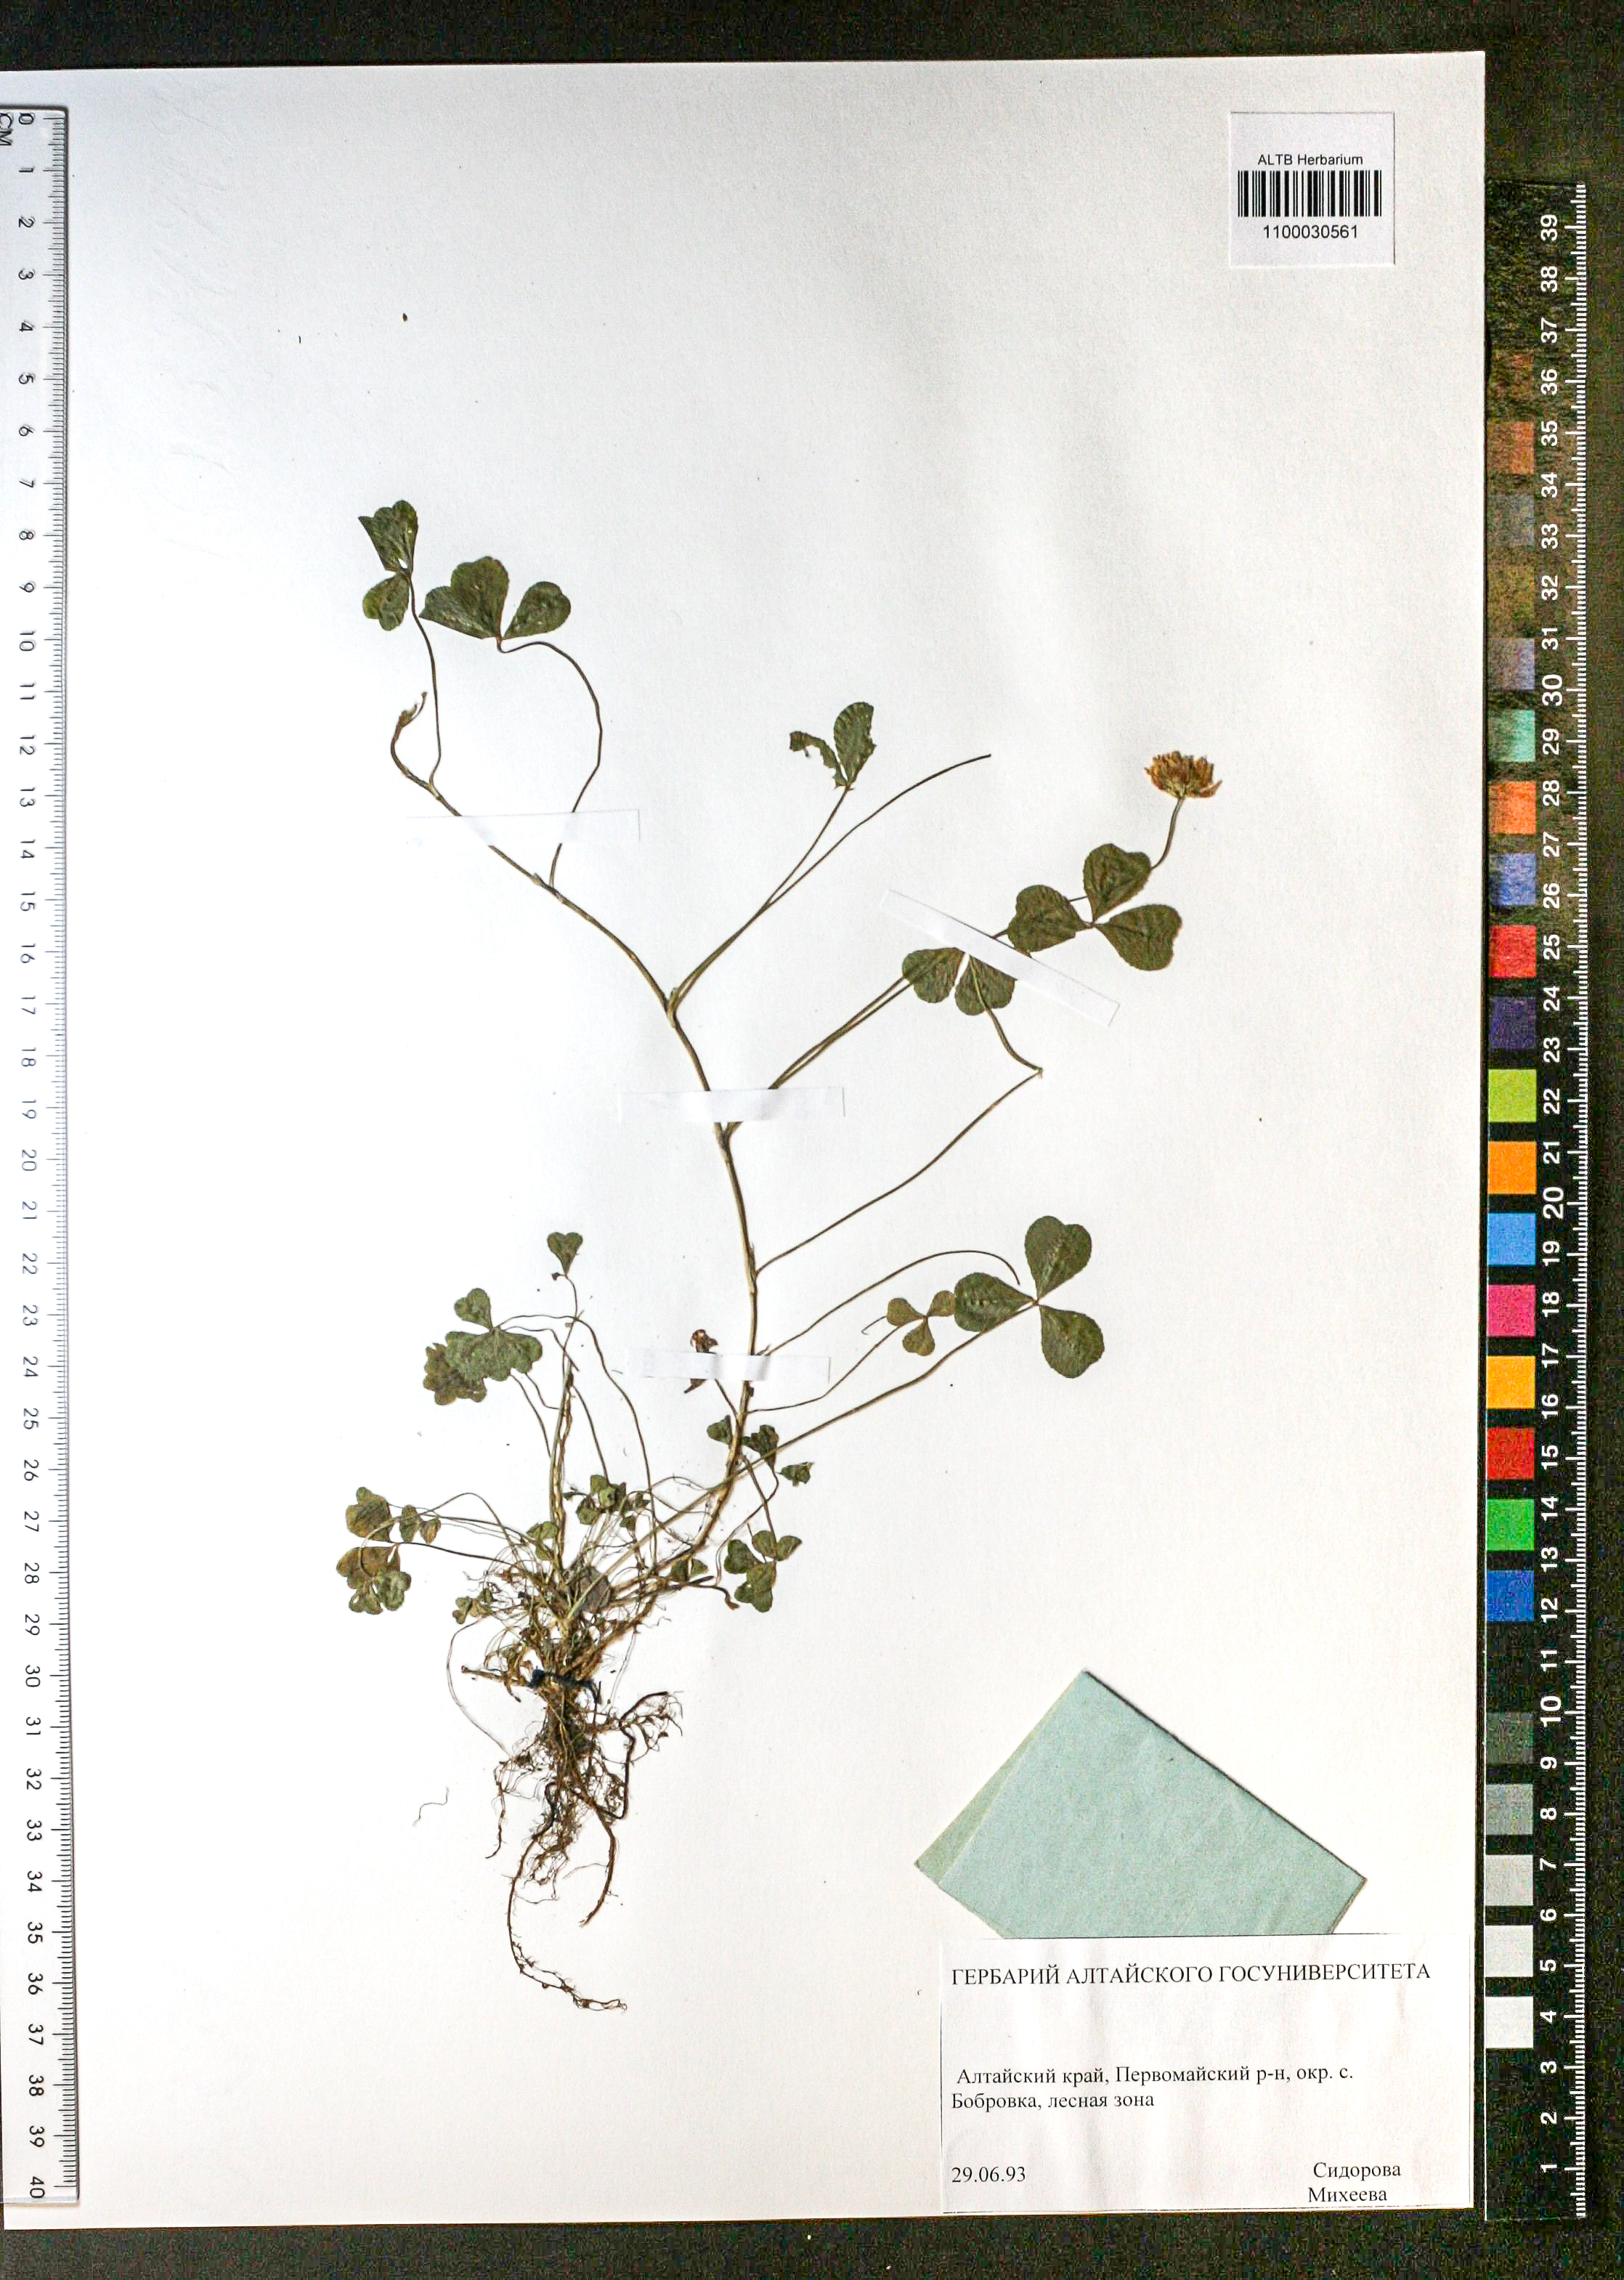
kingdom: Plantae
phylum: Tracheophyta
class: Magnoliopsida
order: Fabales
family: Fabaceae
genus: Trifolium
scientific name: Trifolium repens
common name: White clover
